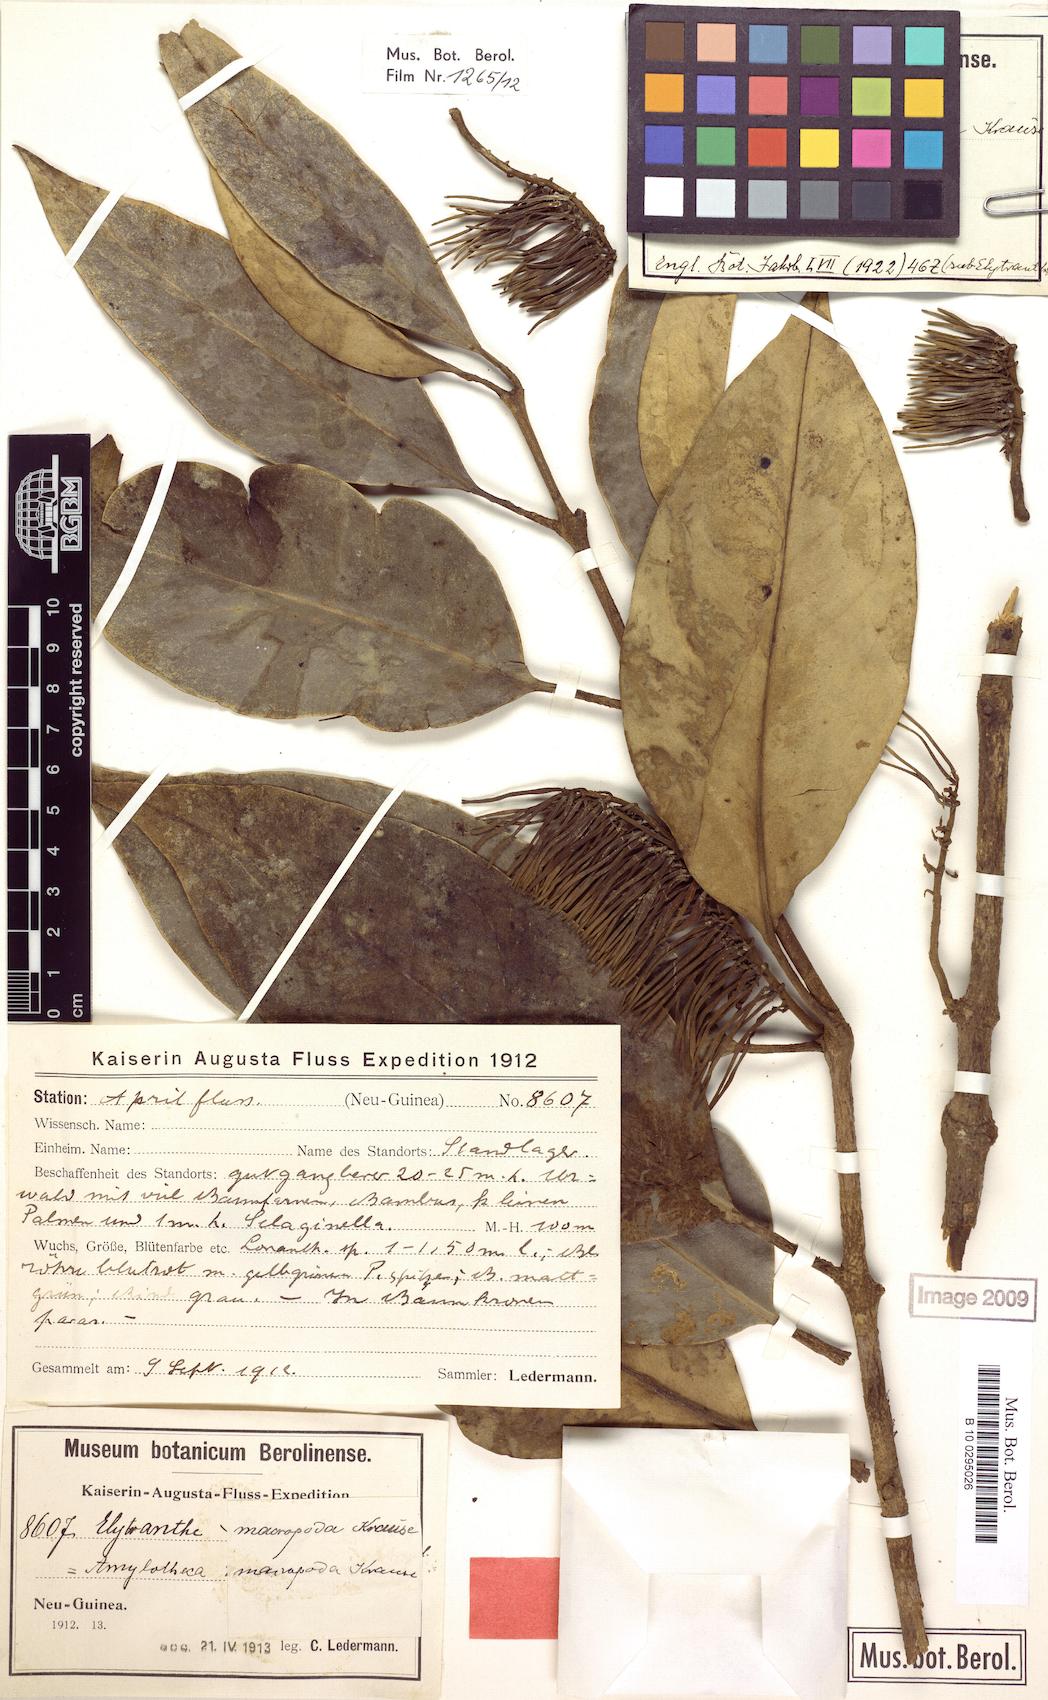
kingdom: Plantae
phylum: Tracheophyta
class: Magnoliopsida
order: Santalales
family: Loranthaceae
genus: Decaisnina
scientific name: Decaisnina hollrungii
